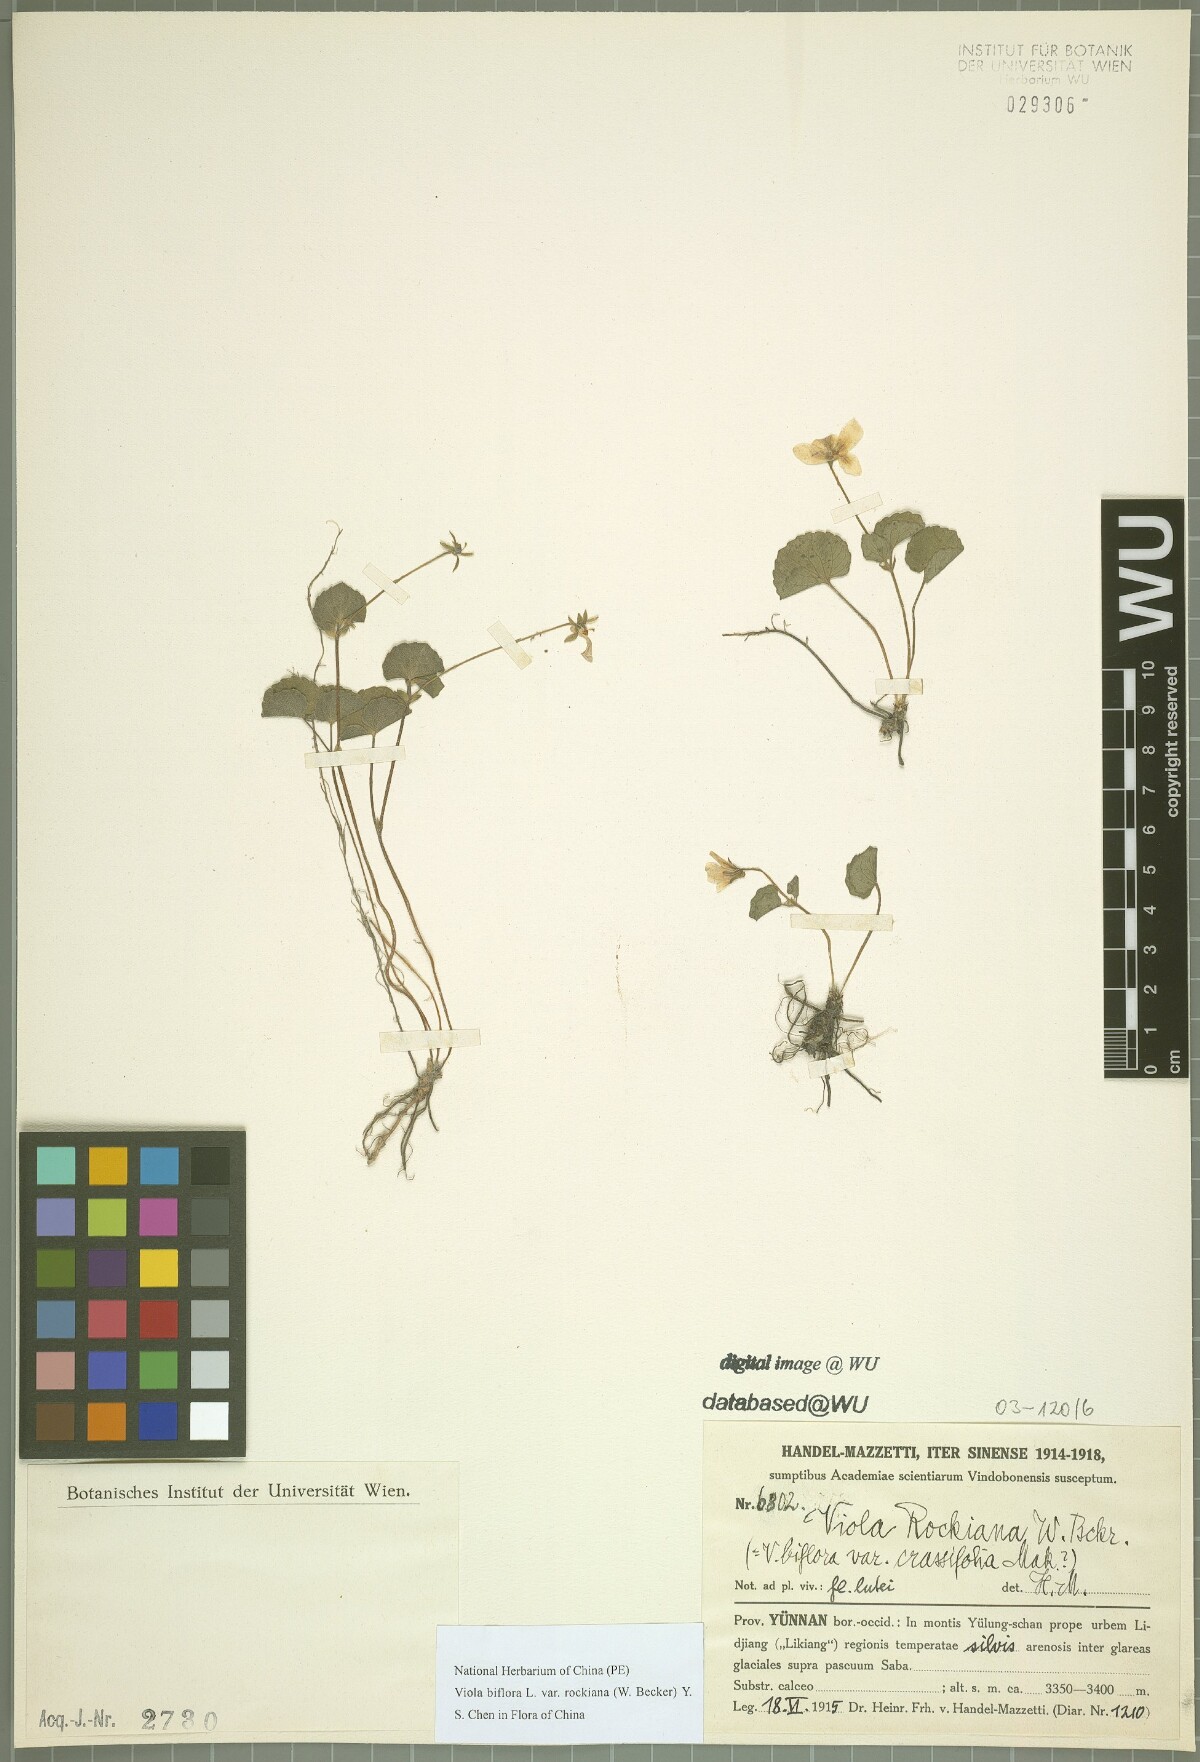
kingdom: Plantae
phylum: Tracheophyta
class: Magnoliopsida
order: Malpighiales
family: Violaceae
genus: Viola
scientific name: Viola rockiana
